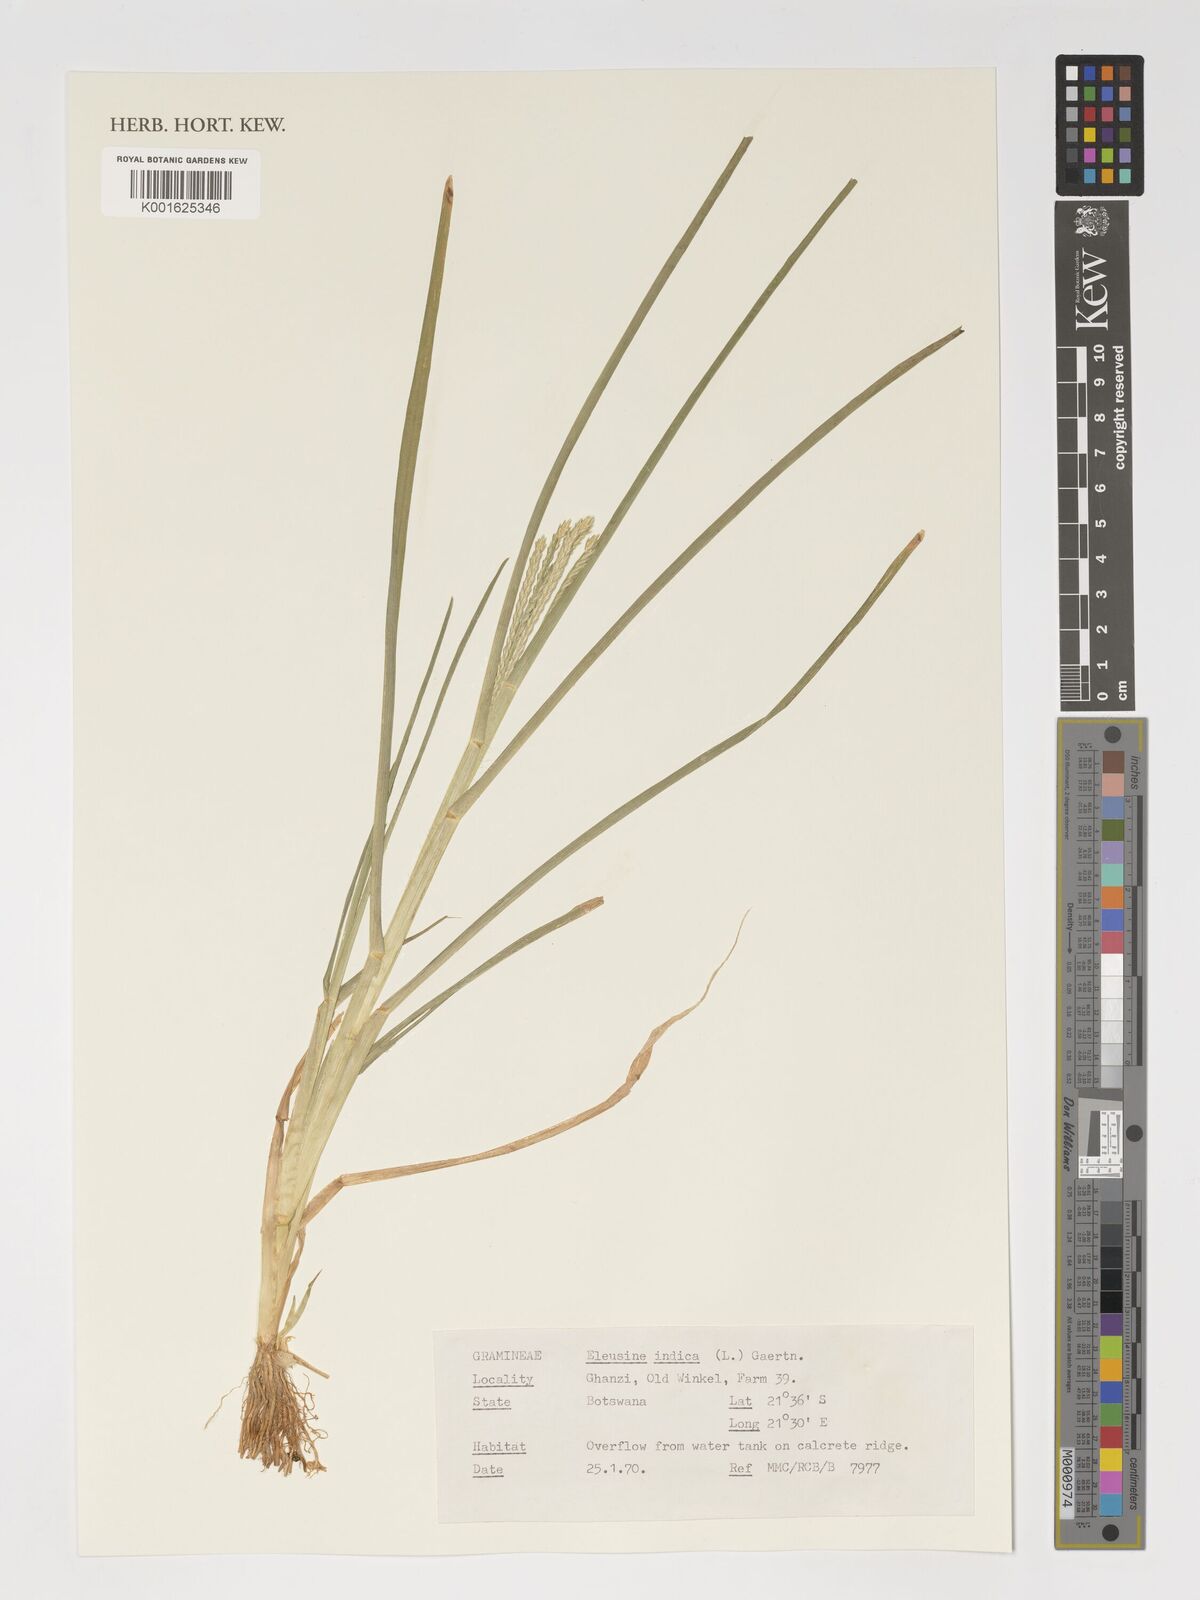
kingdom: Plantae
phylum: Tracheophyta
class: Liliopsida
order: Poales
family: Poaceae
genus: Eleusine
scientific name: Eleusine indica
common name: Yard-grass
